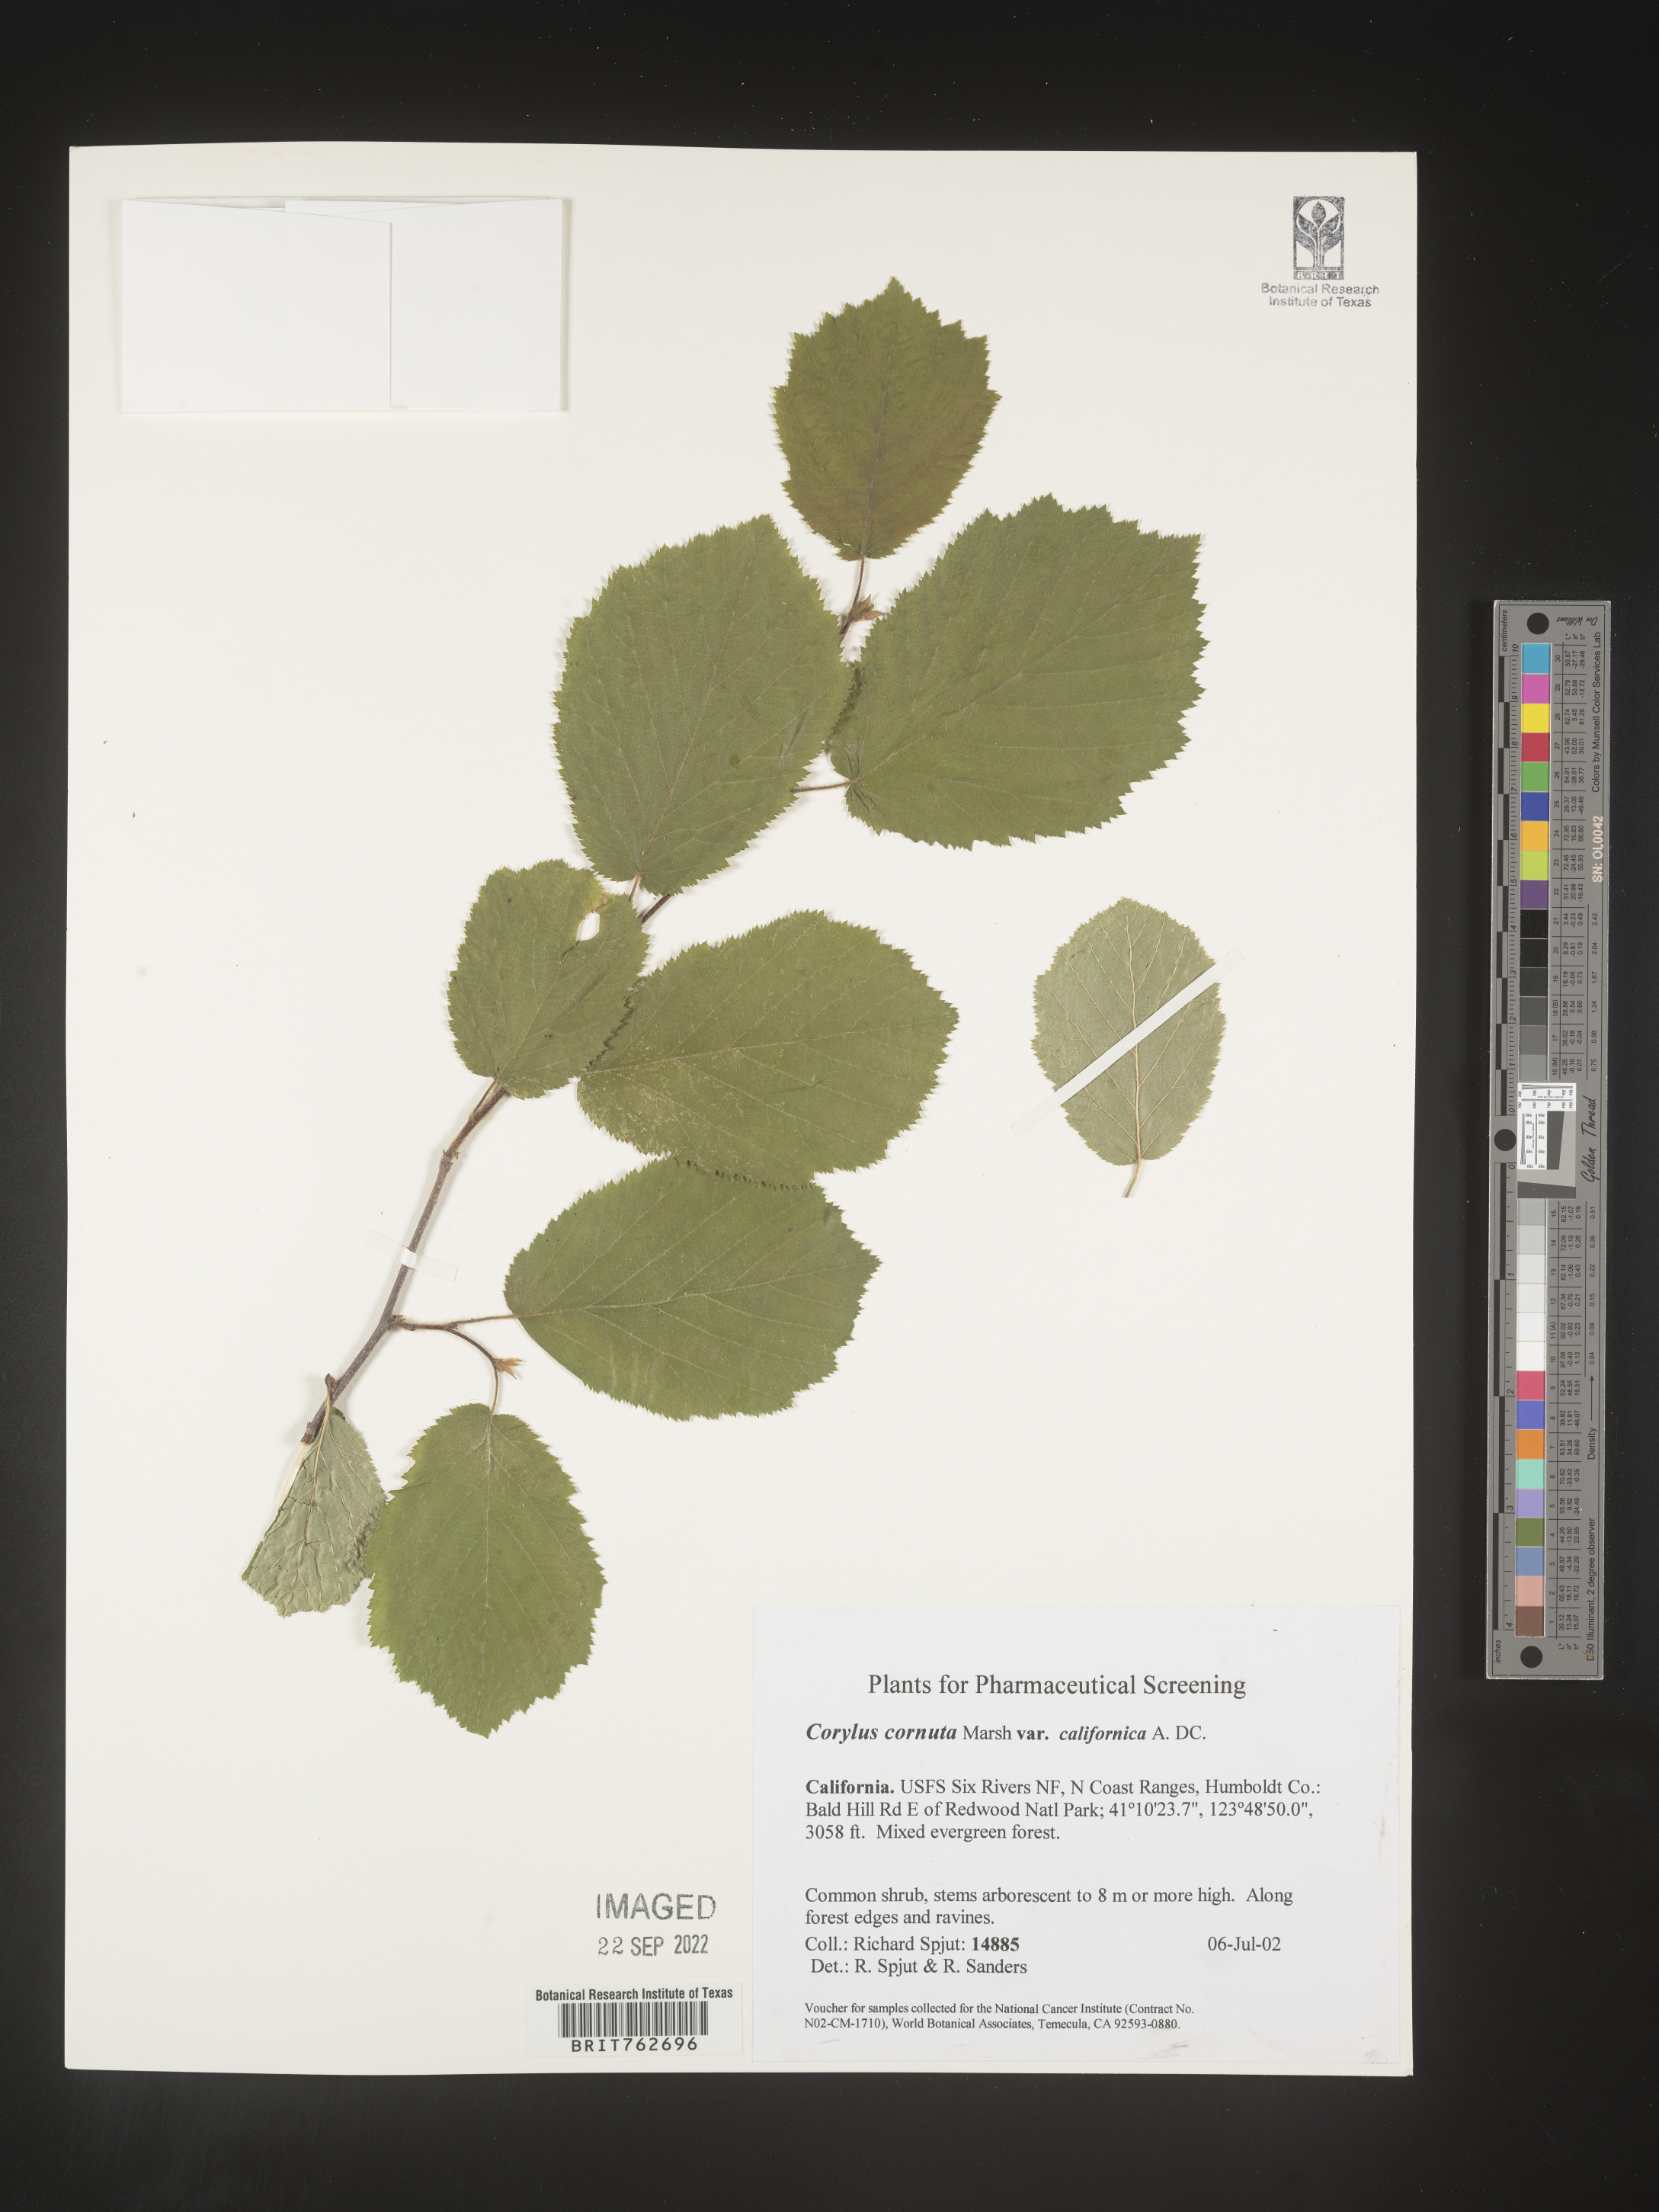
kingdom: Plantae
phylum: Tracheophyta
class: Magnoliopsida
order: Fagales
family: Betulaceae
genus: Corylus
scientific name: Corylus cornuta
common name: Beaked hazel
